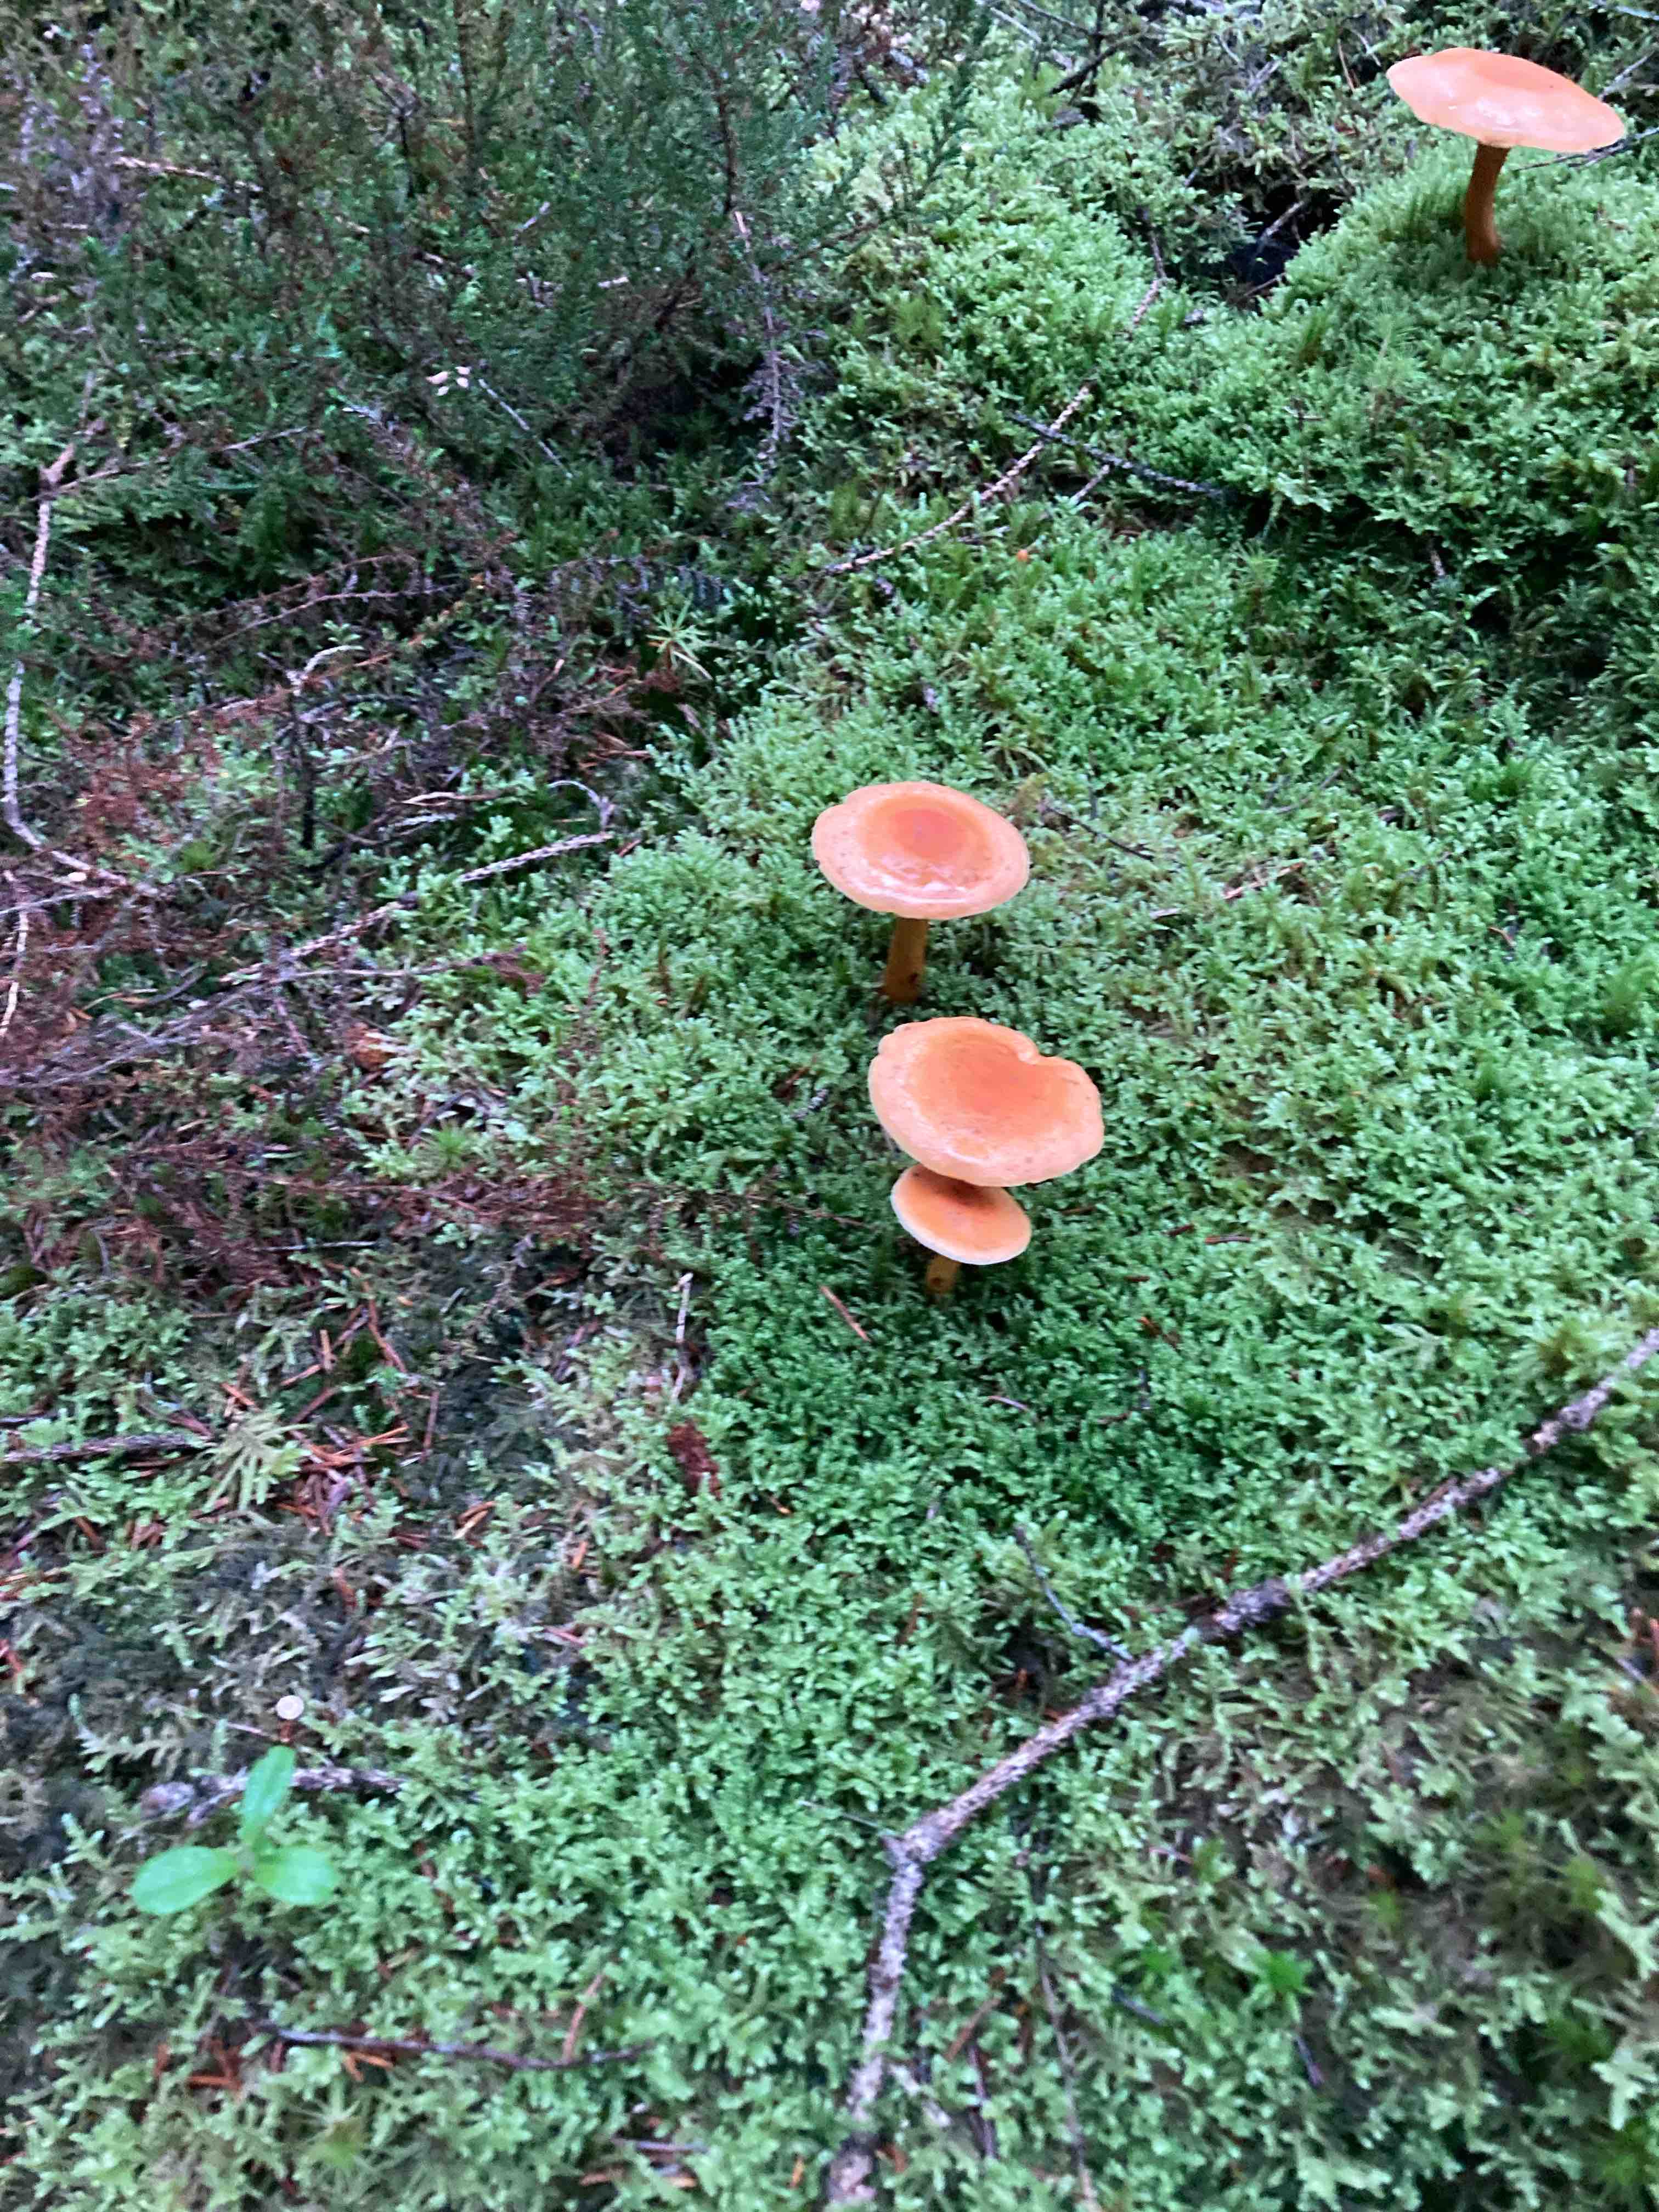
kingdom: Fungi
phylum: Basidiomycota
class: Agaricomycetes
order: Boletales
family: Hygrophoropsidaceae
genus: Hygrophoropsis
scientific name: Hygrophoropsis aurantiaca
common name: almindelig orangekantarel
